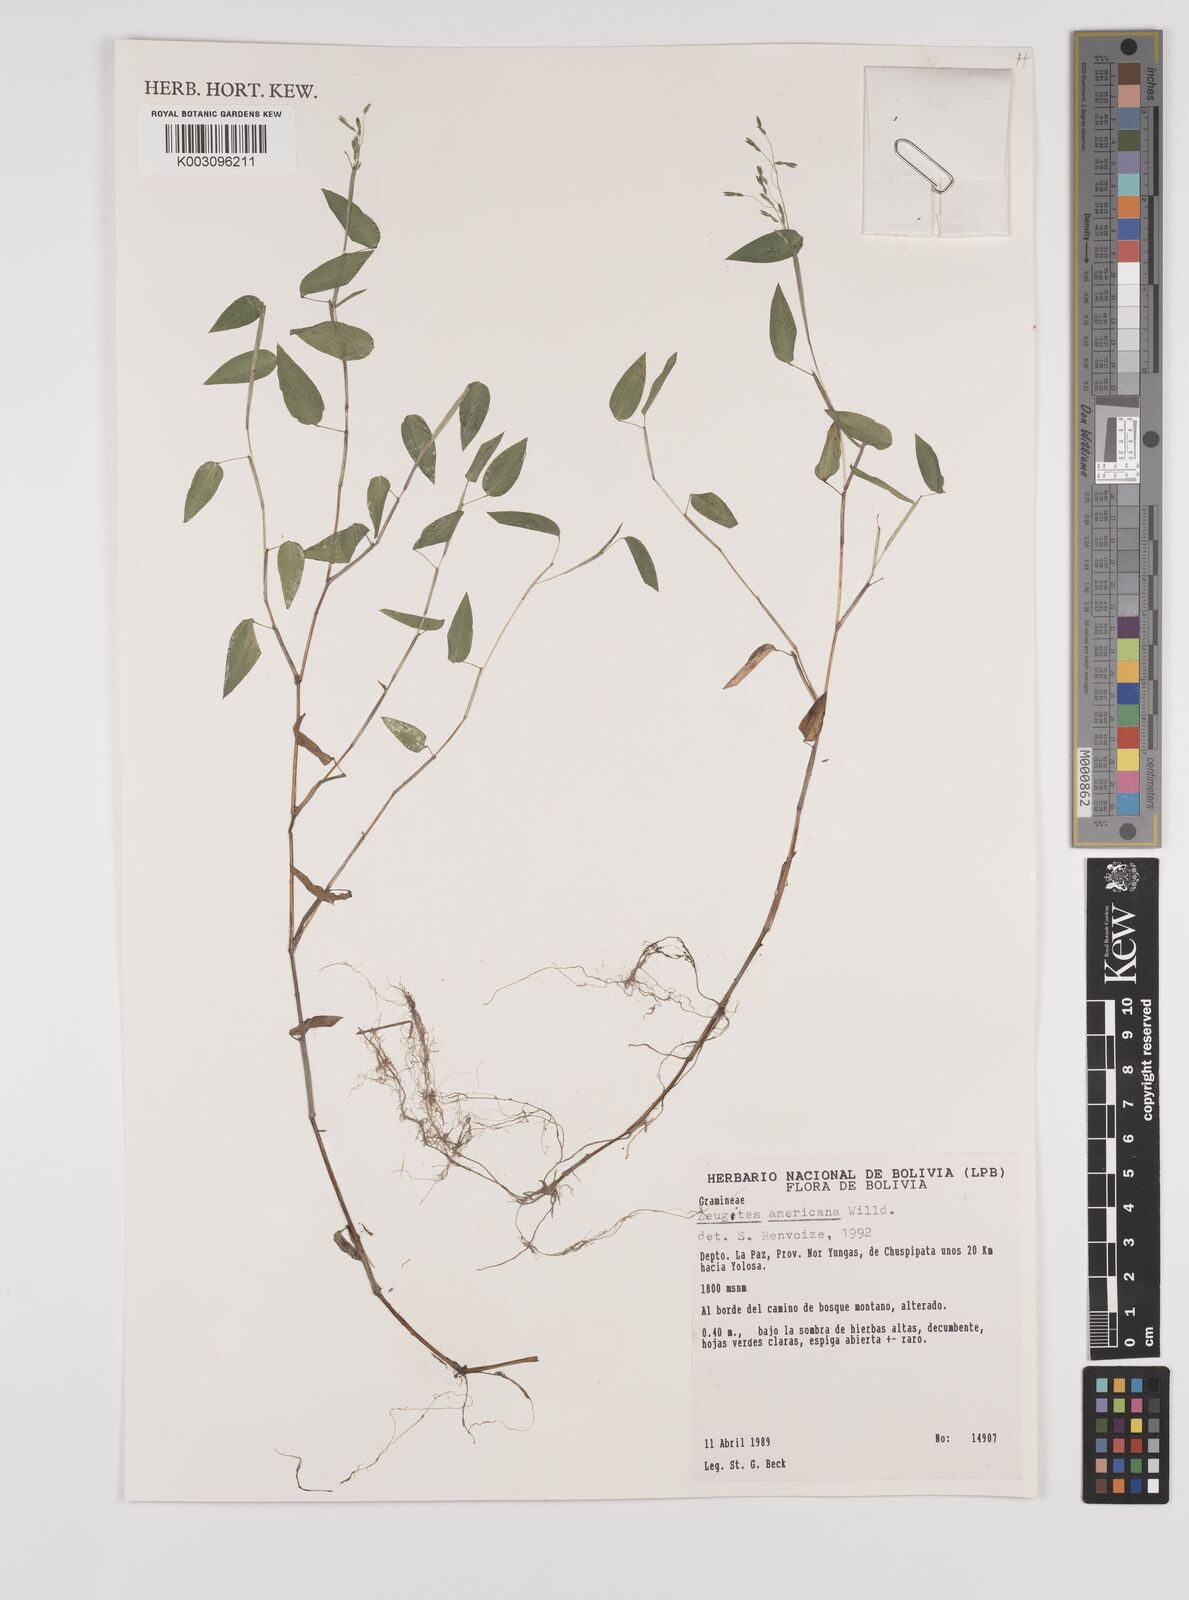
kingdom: Plantae
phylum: Tracheophyta
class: Liliopsida
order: Poales
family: Poaceae
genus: Zeugites
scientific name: Zeugites americanus
